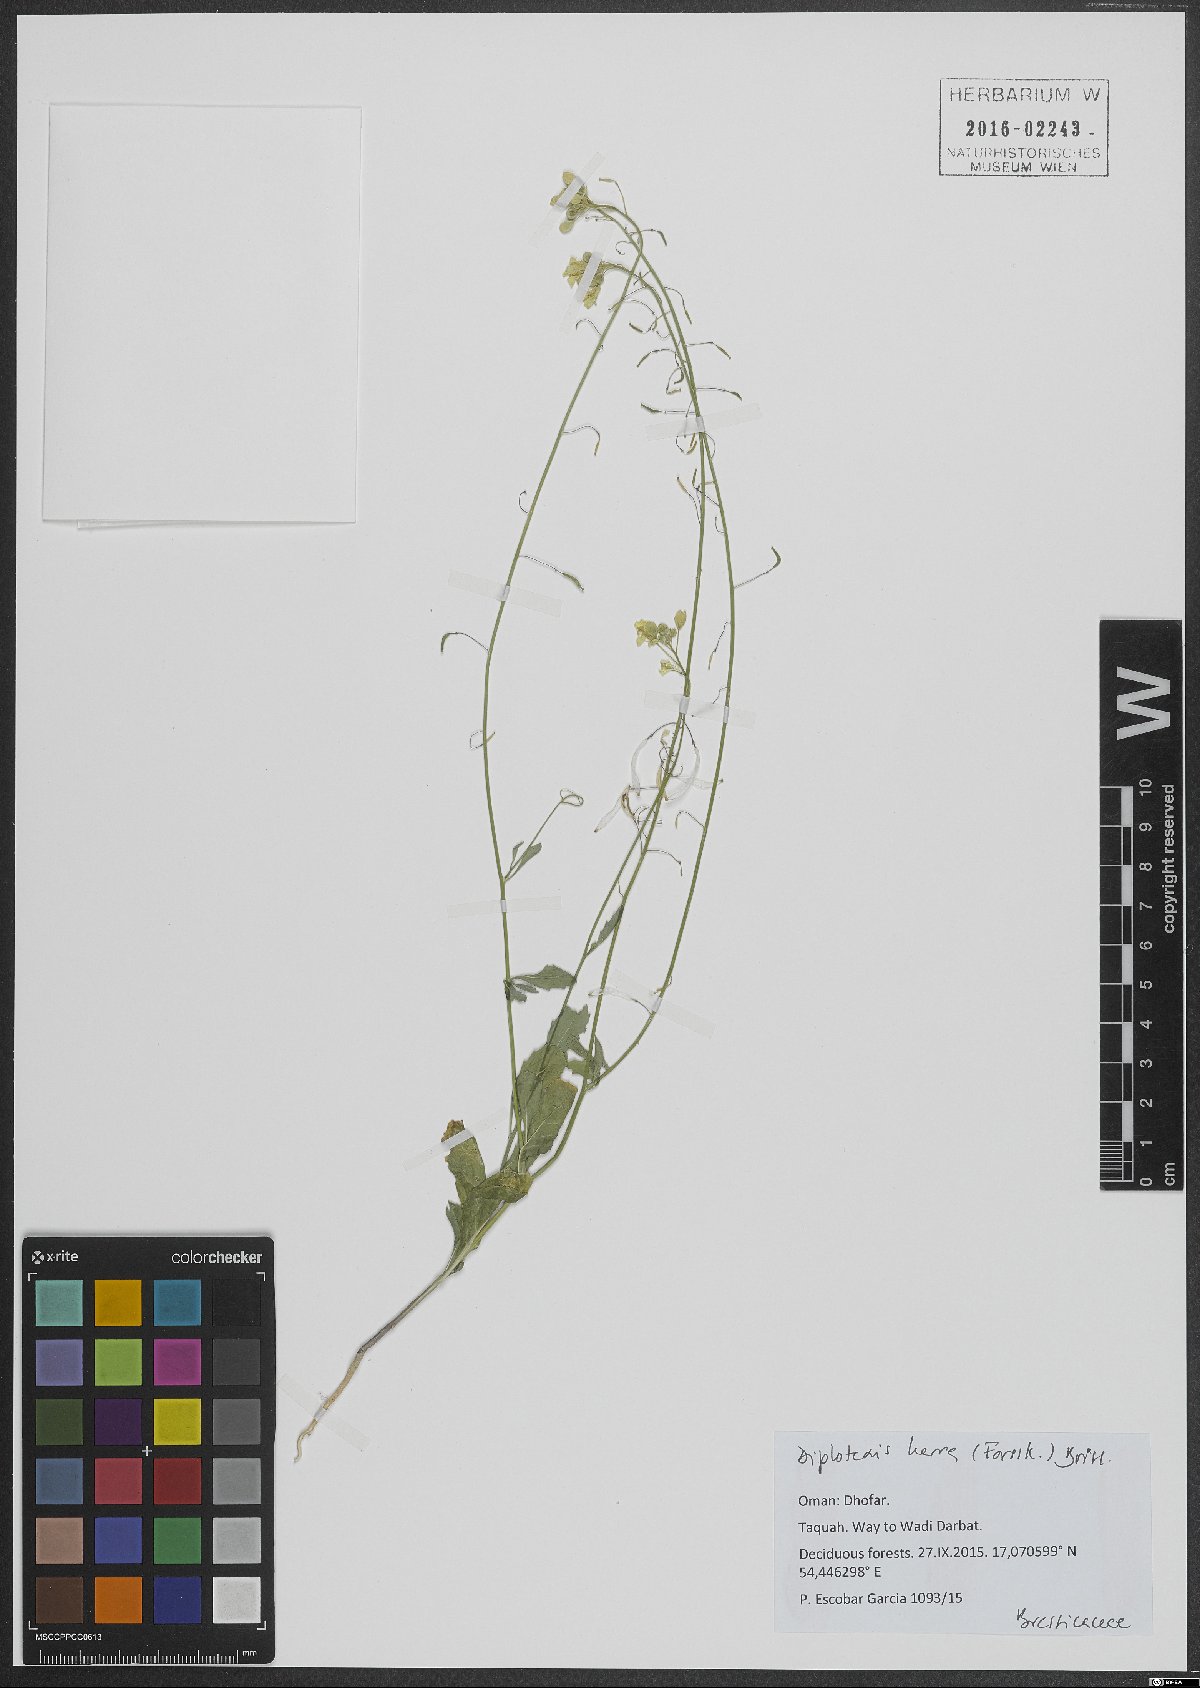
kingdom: Plantae
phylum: Tracheophyta
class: Magnoliopsida
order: Brassicales
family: Brassicaceae
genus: Diplotaxis
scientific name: Diplotaxis harra
